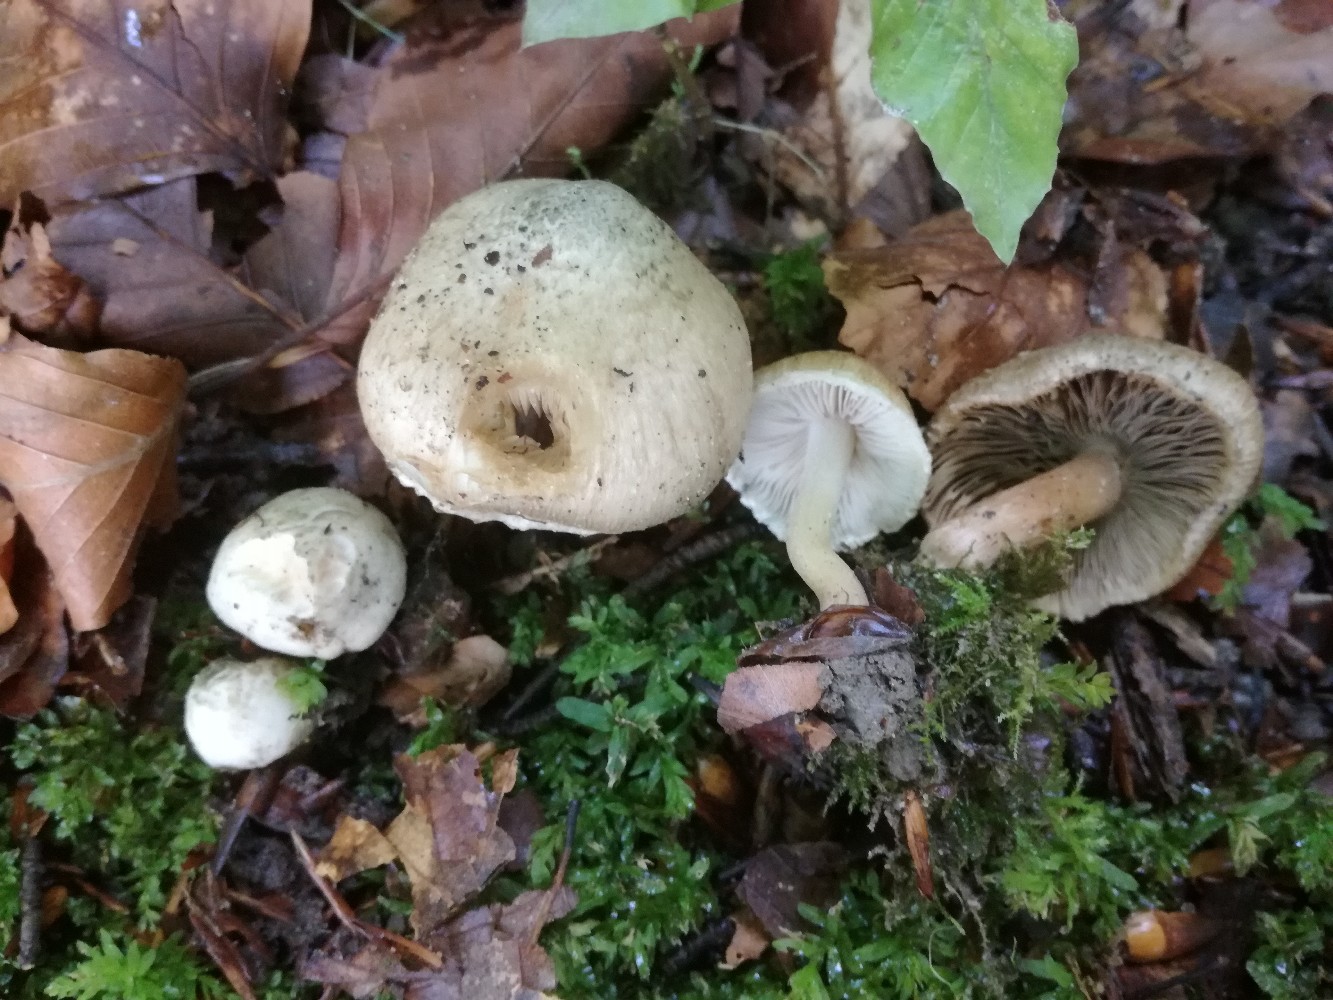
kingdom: Fungi
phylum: Basidiomycota
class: Agaricomycetes
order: Agaricales
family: Inocybaceae
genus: Inocybe
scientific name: Inocybe corydalina
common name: grønpuklet trævlhat
